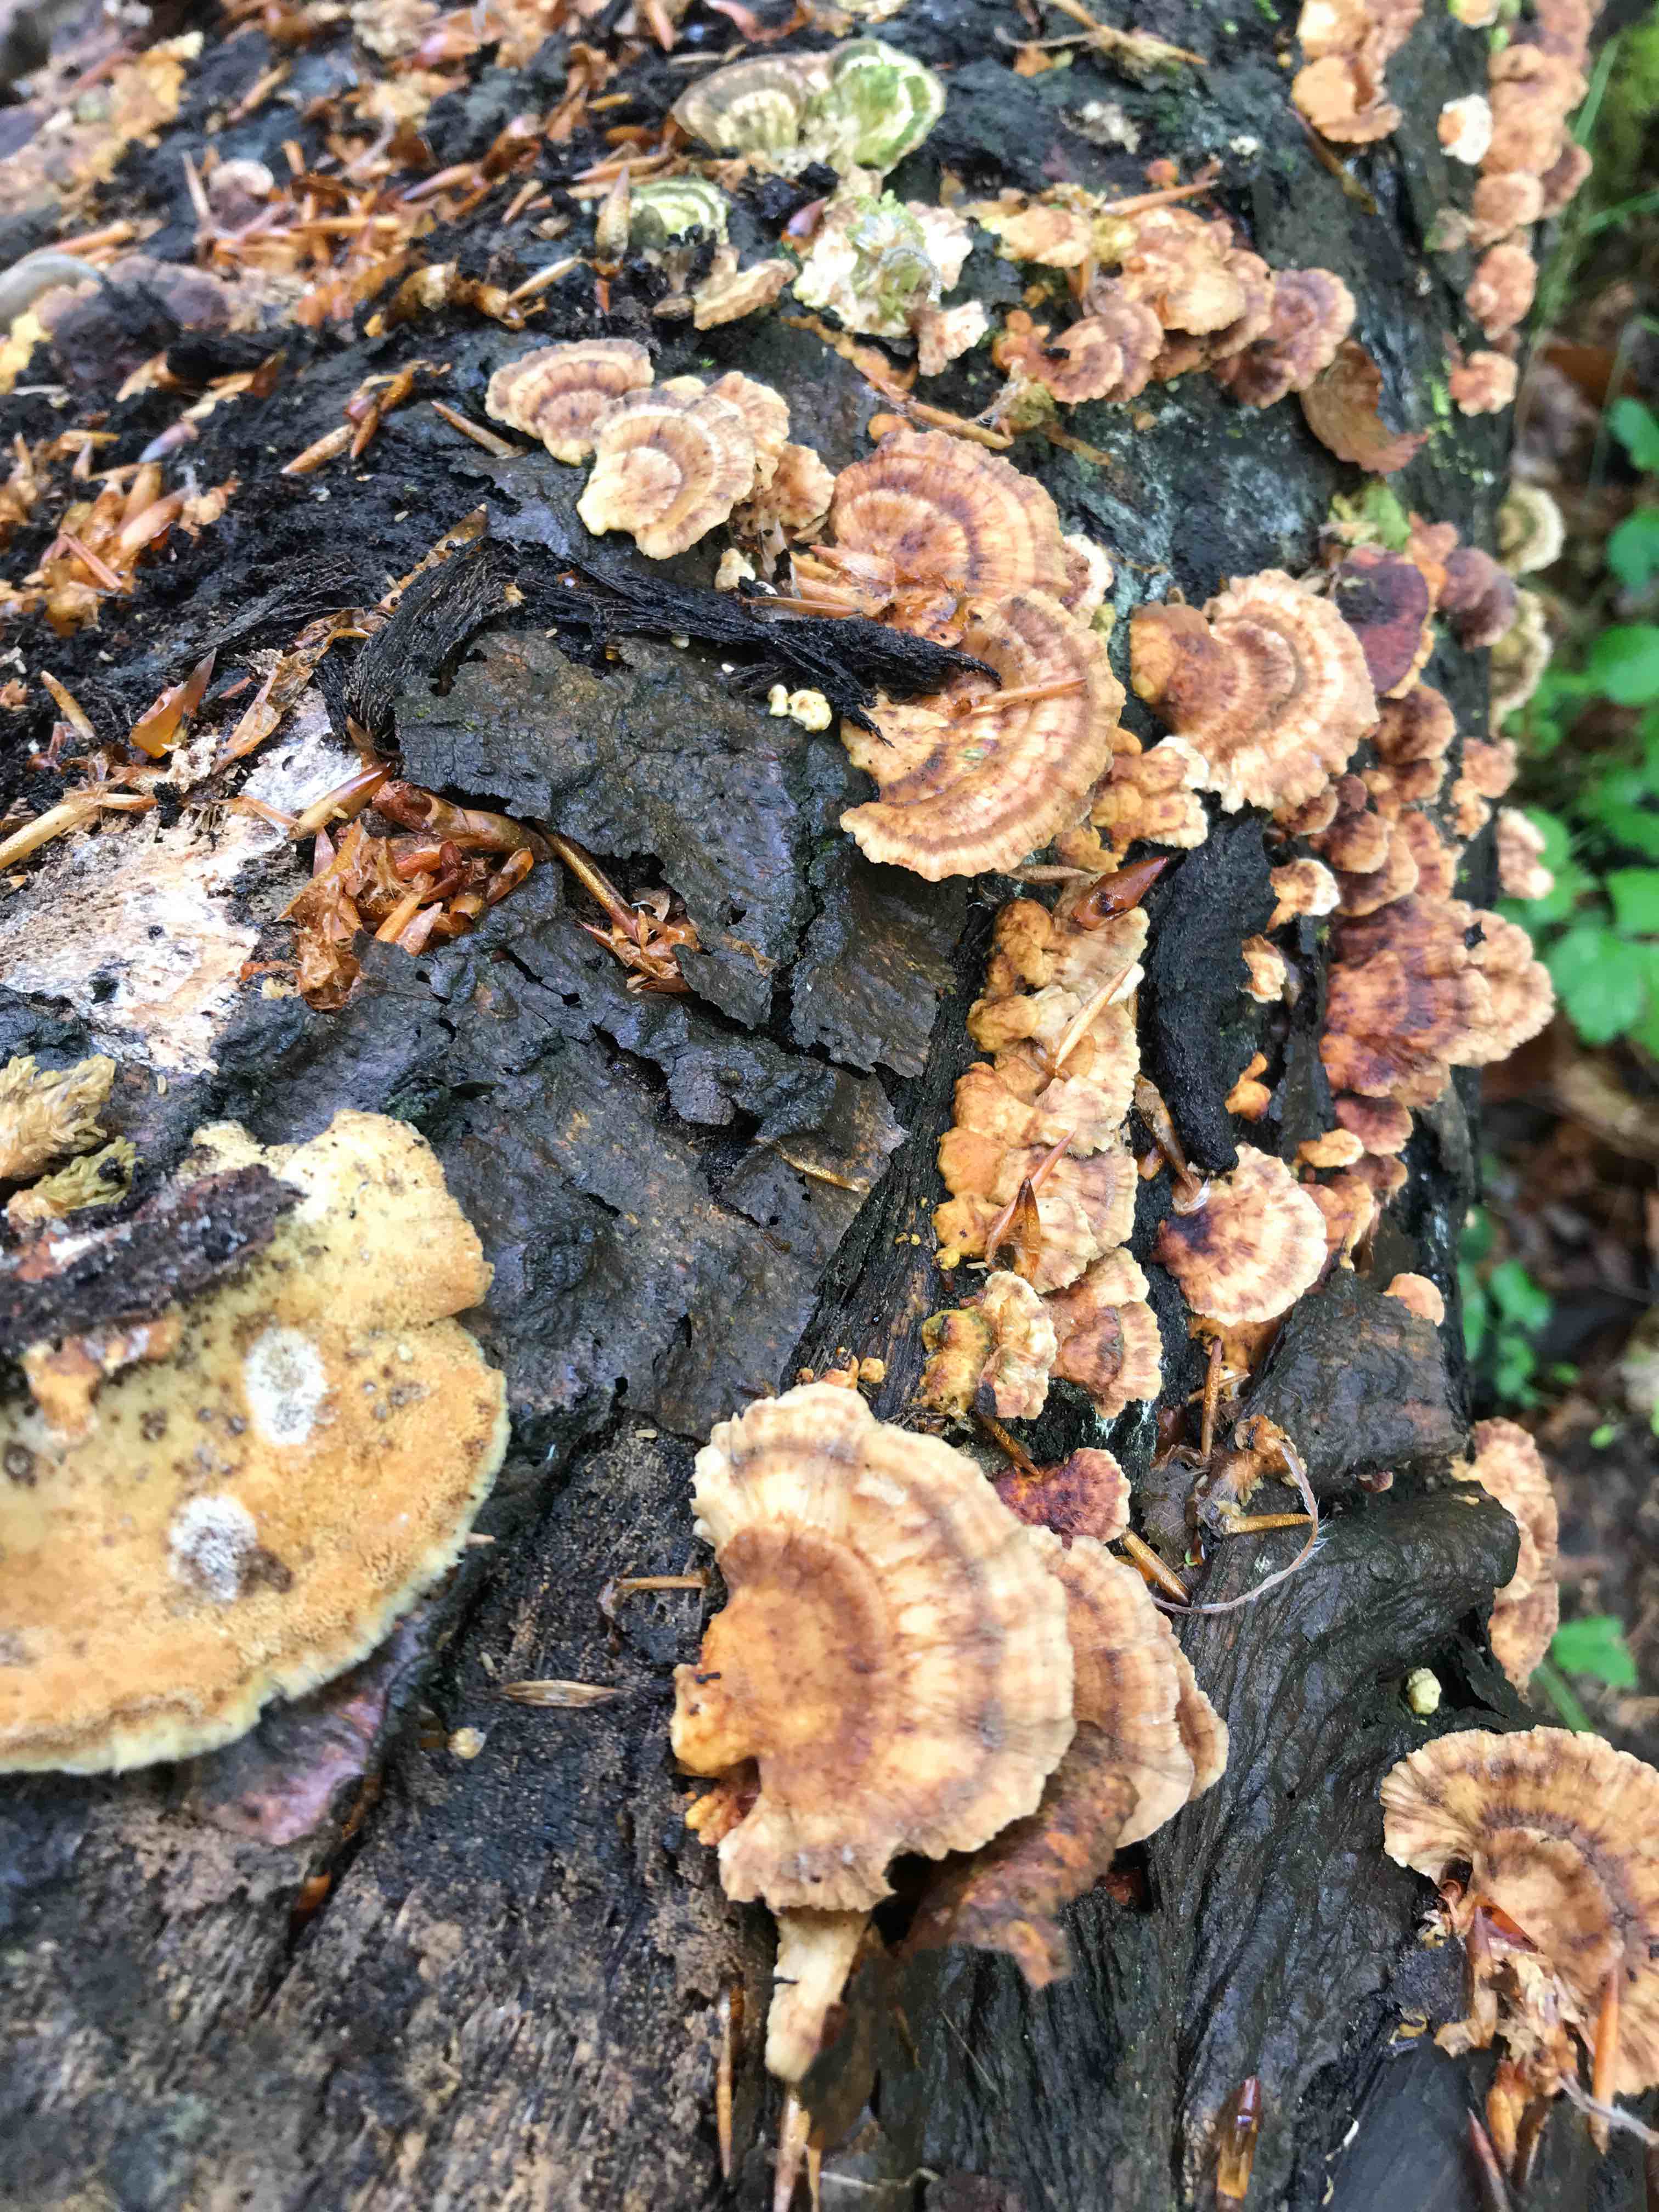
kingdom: Fungi
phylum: Basidiomycota
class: Agaricomycetes
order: Polyporales
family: Polyporaceae
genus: Trametes
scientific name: Trametes
